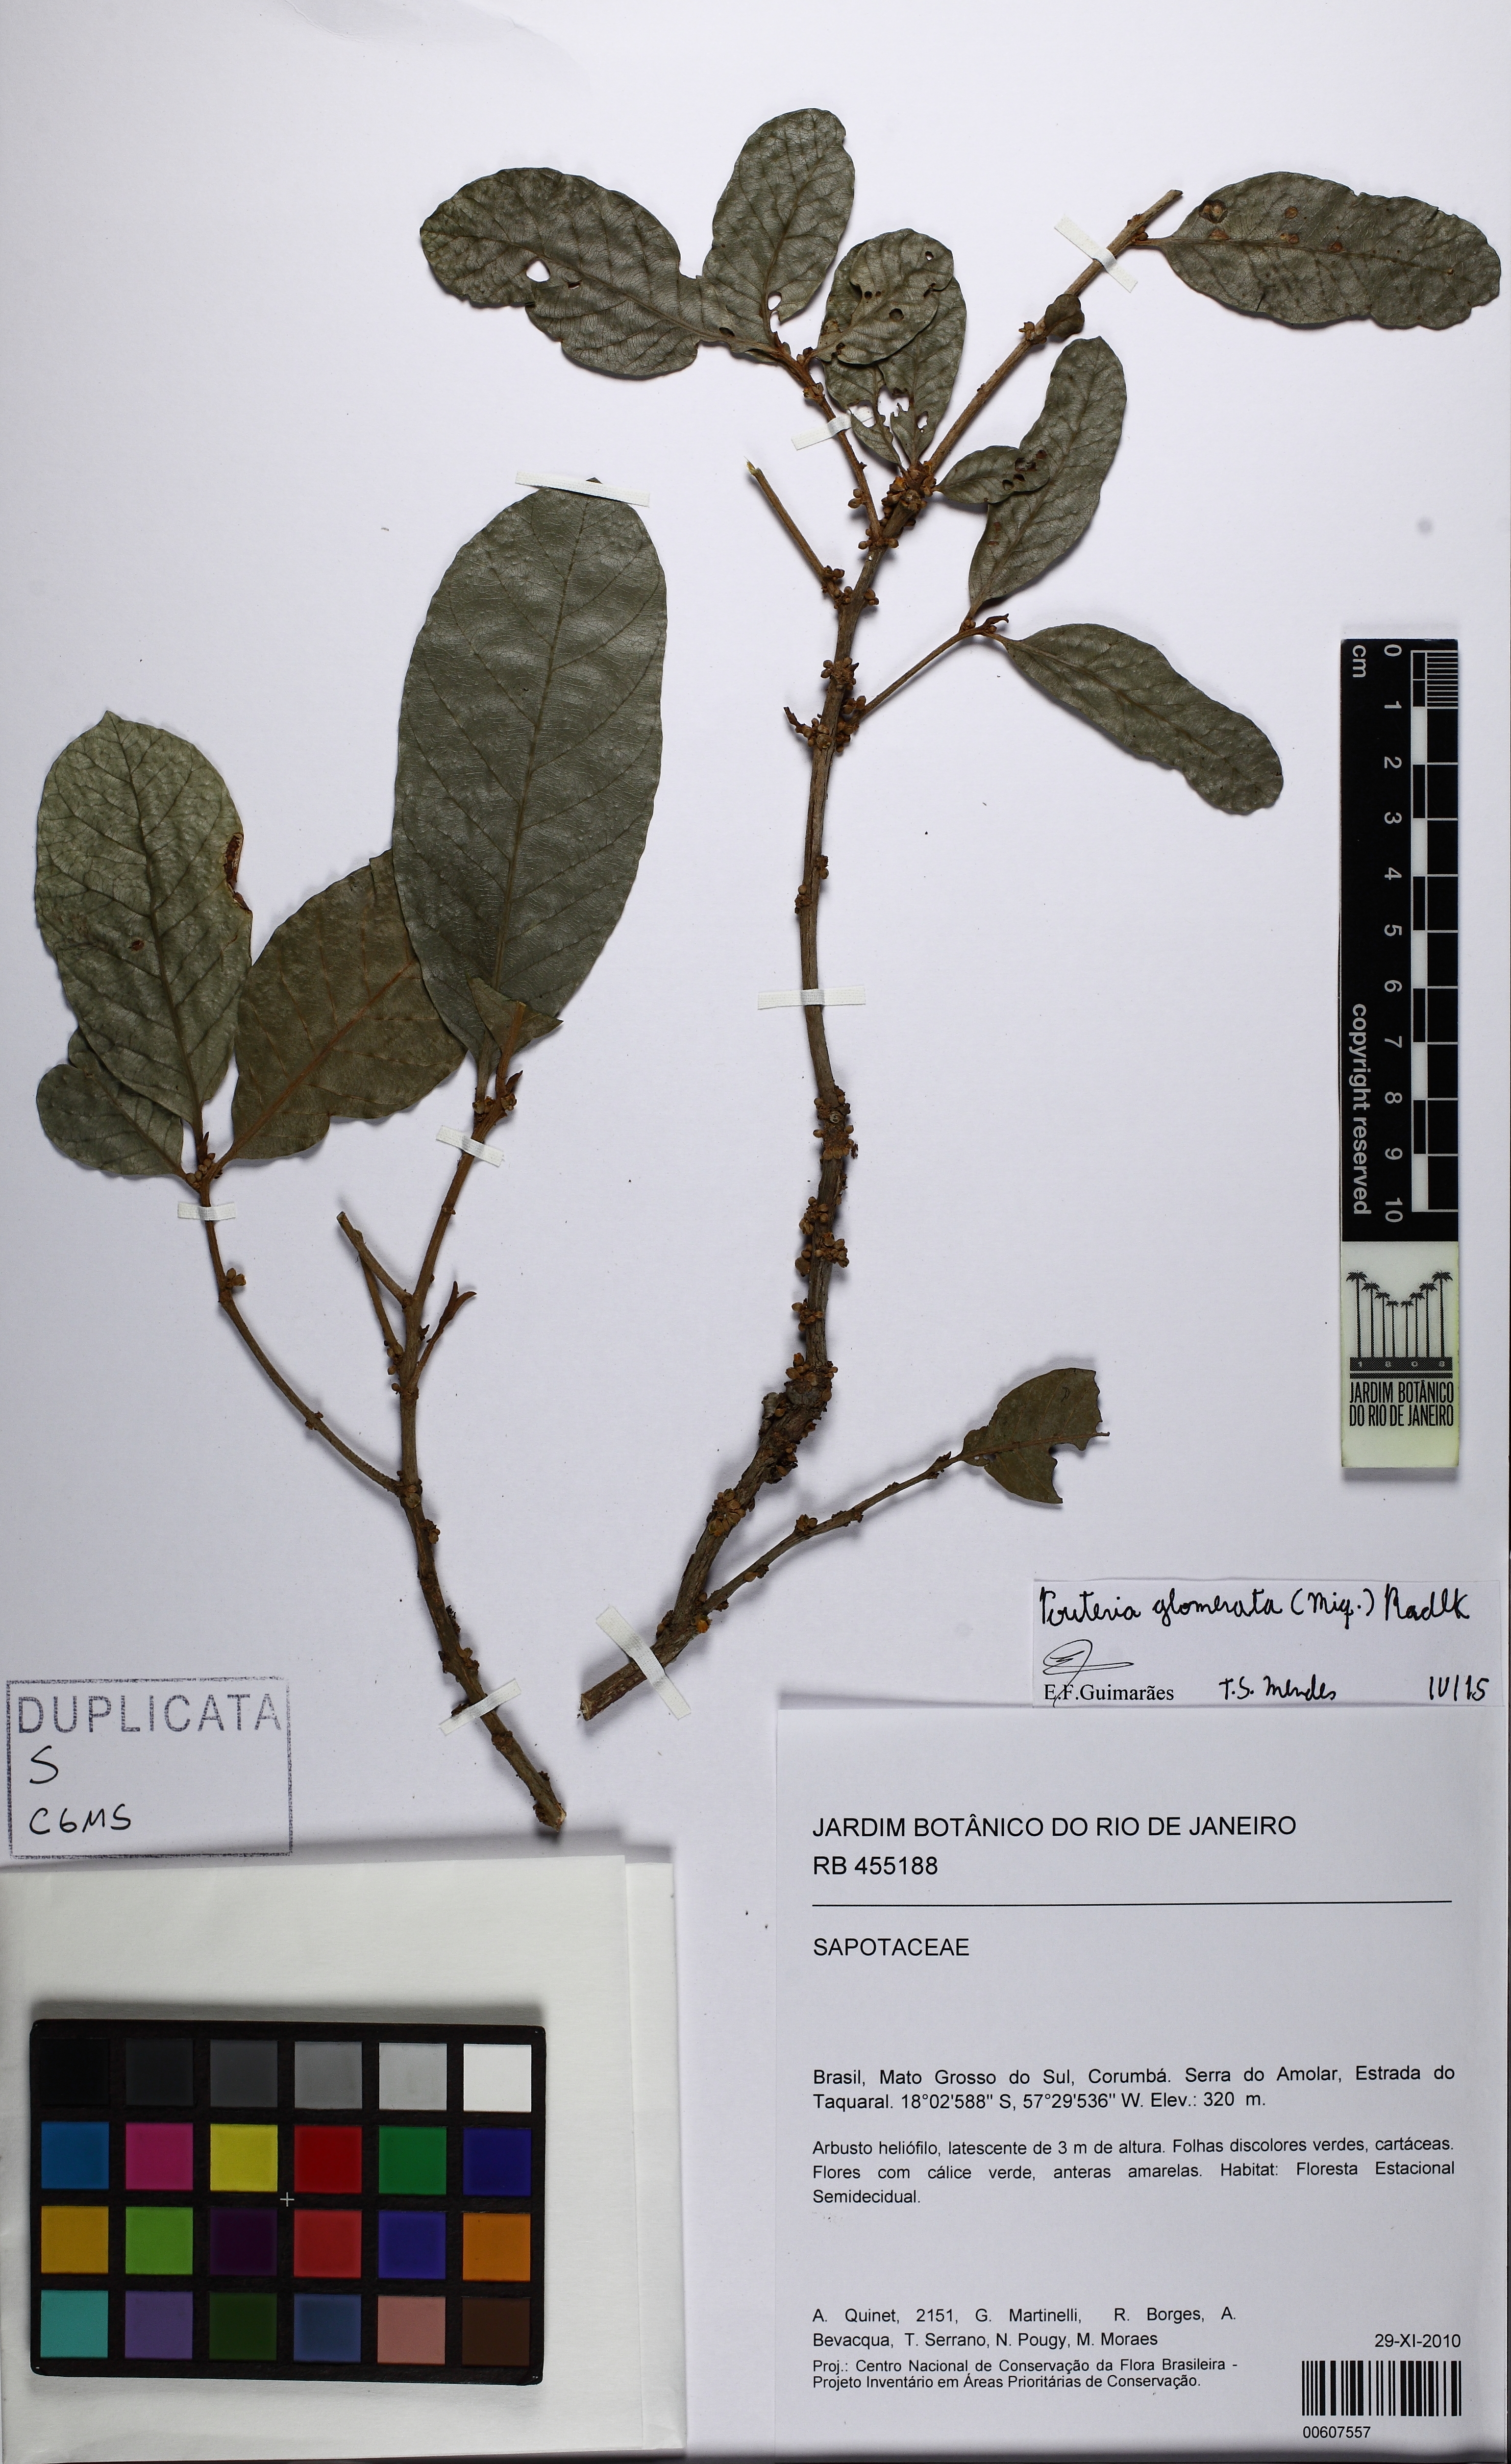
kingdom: Plantae
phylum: Tracheophyta
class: Magnoliopsida
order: Ericales
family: Sapotaceae
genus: Pouteria
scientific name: Pouteria glomerata
